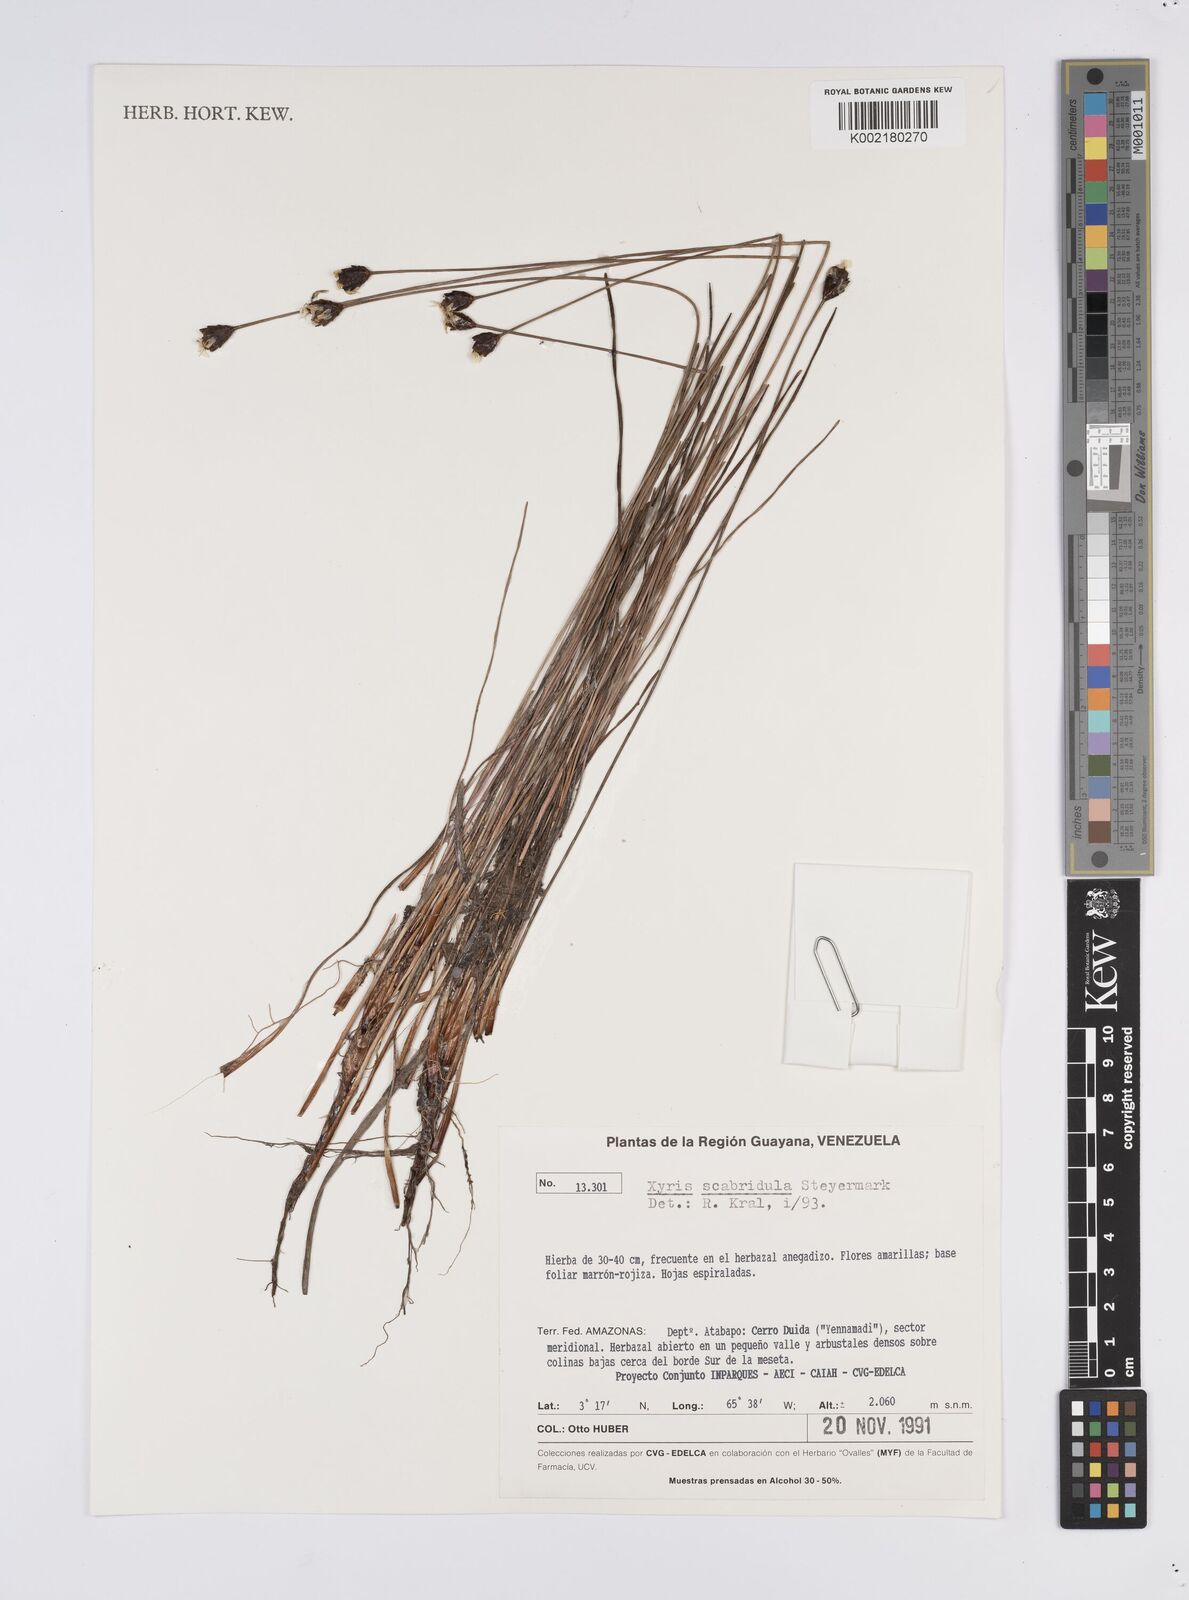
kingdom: Plantae
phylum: Tracheophyta
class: Liliopsida
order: Poales
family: Xyridaceae
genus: Xyris
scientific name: Xyris sulcatifolia
